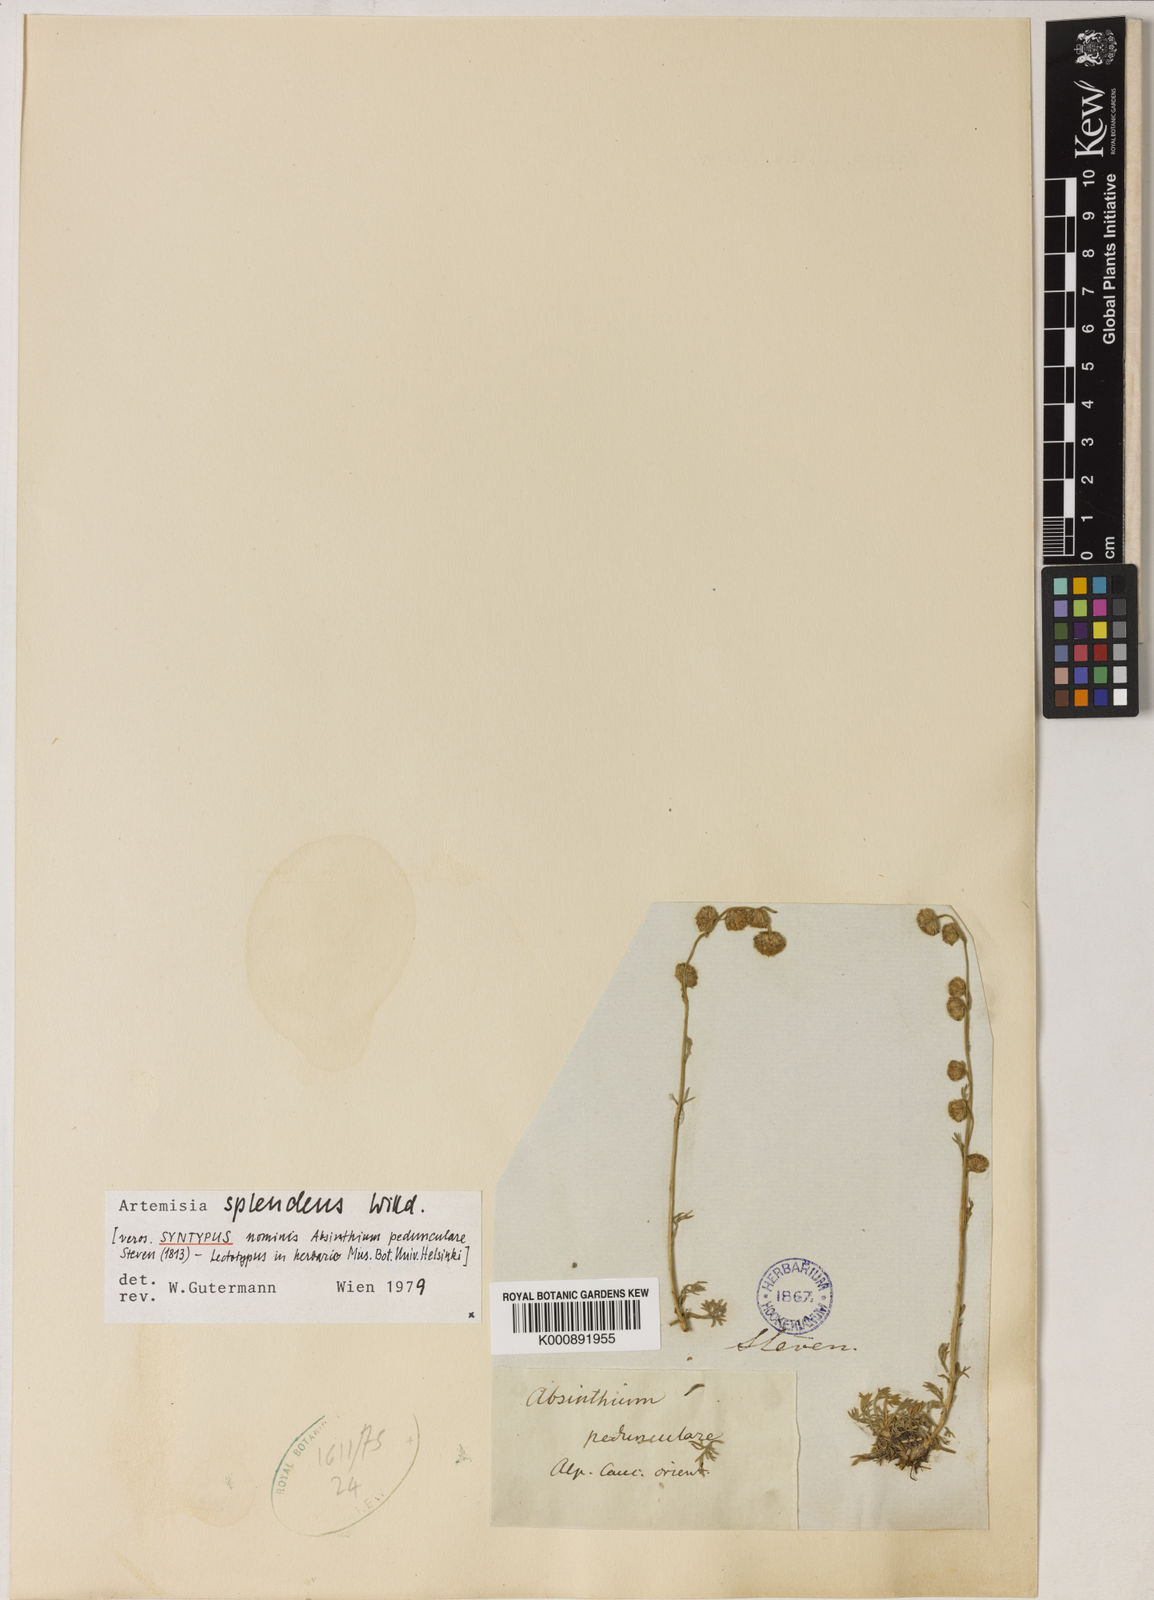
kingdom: Plantae
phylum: Tracheophyta
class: Magnoliopsida
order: Asterales
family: Asteraceae
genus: Artemisia
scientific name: Artemisia splendens
